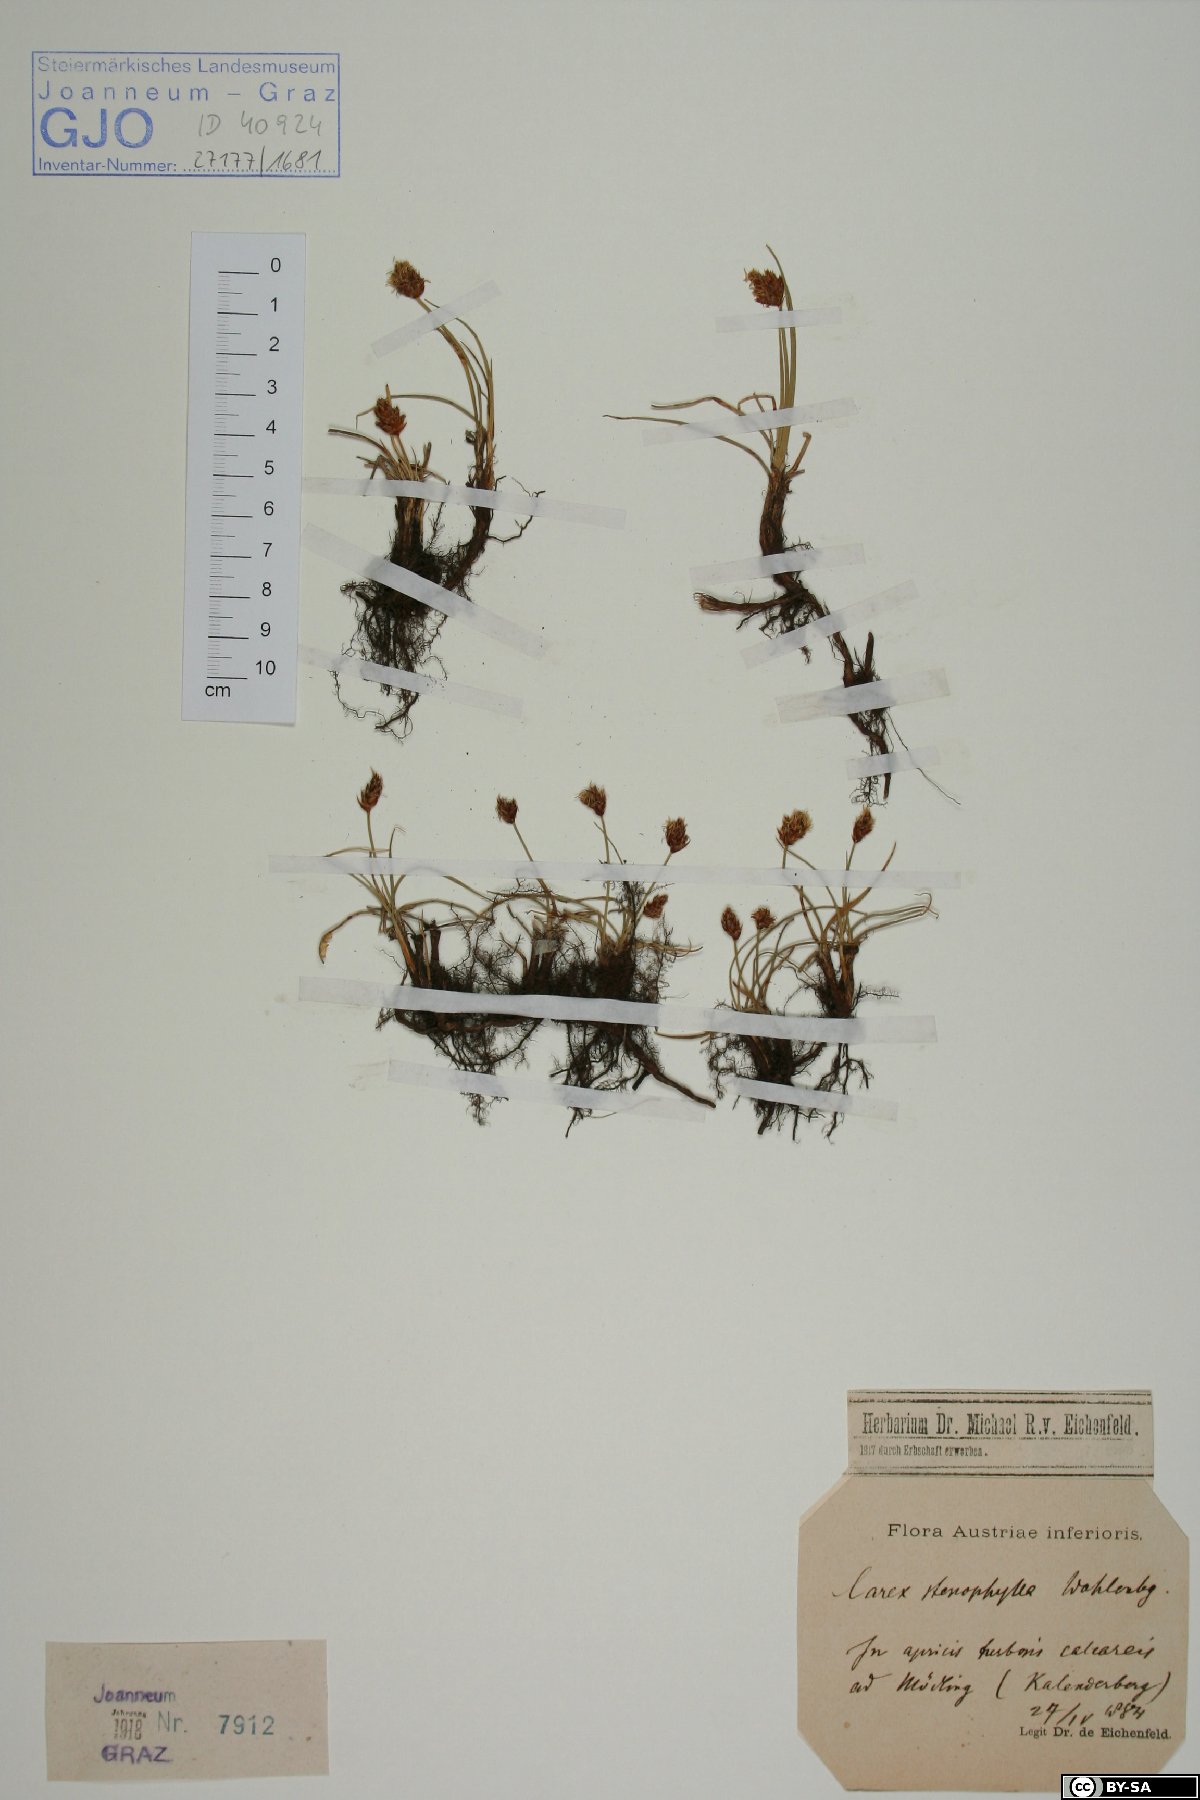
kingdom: Plantae
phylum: Tracheophyta
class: Liliopsida
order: Poales
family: Cyperaceae
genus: Carex
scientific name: Carex stenophylla
